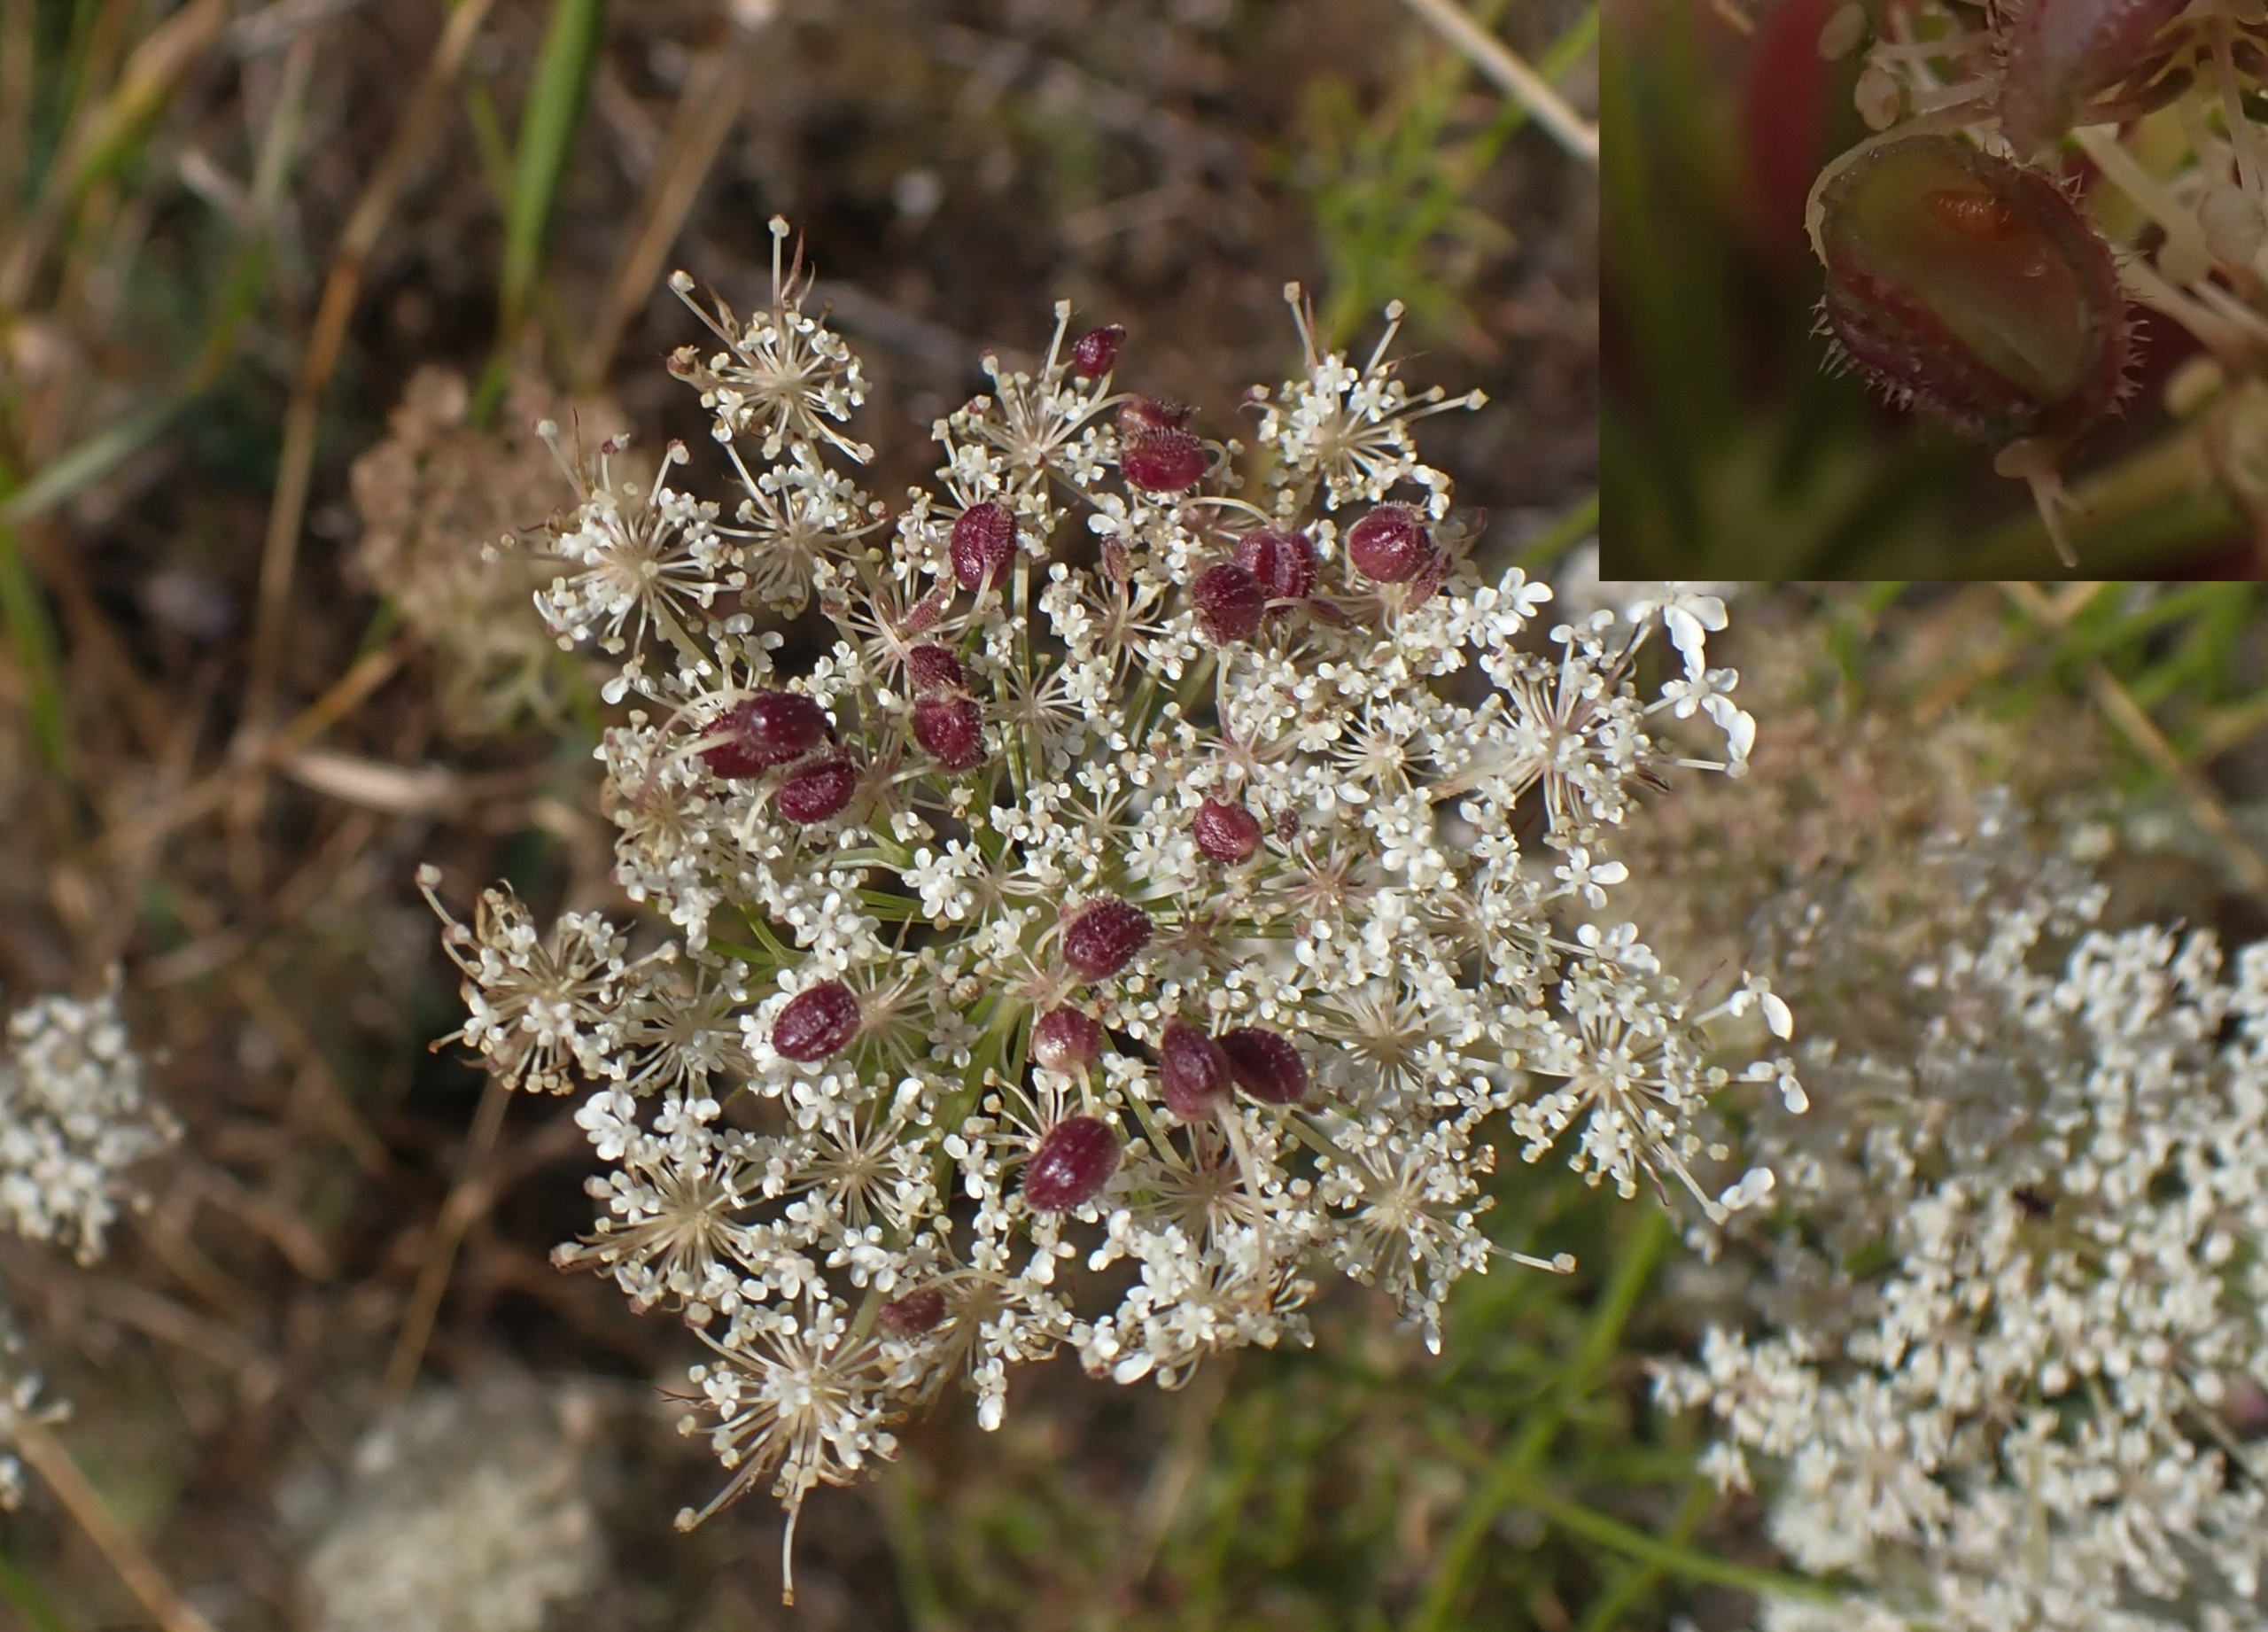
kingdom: Animalia
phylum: Arthropoda
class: Insecta
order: Diptera
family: Cecidomyiidae
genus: Kiefferia
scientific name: Kiefferia pericarpiicola
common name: Gulerodsgalmyg
